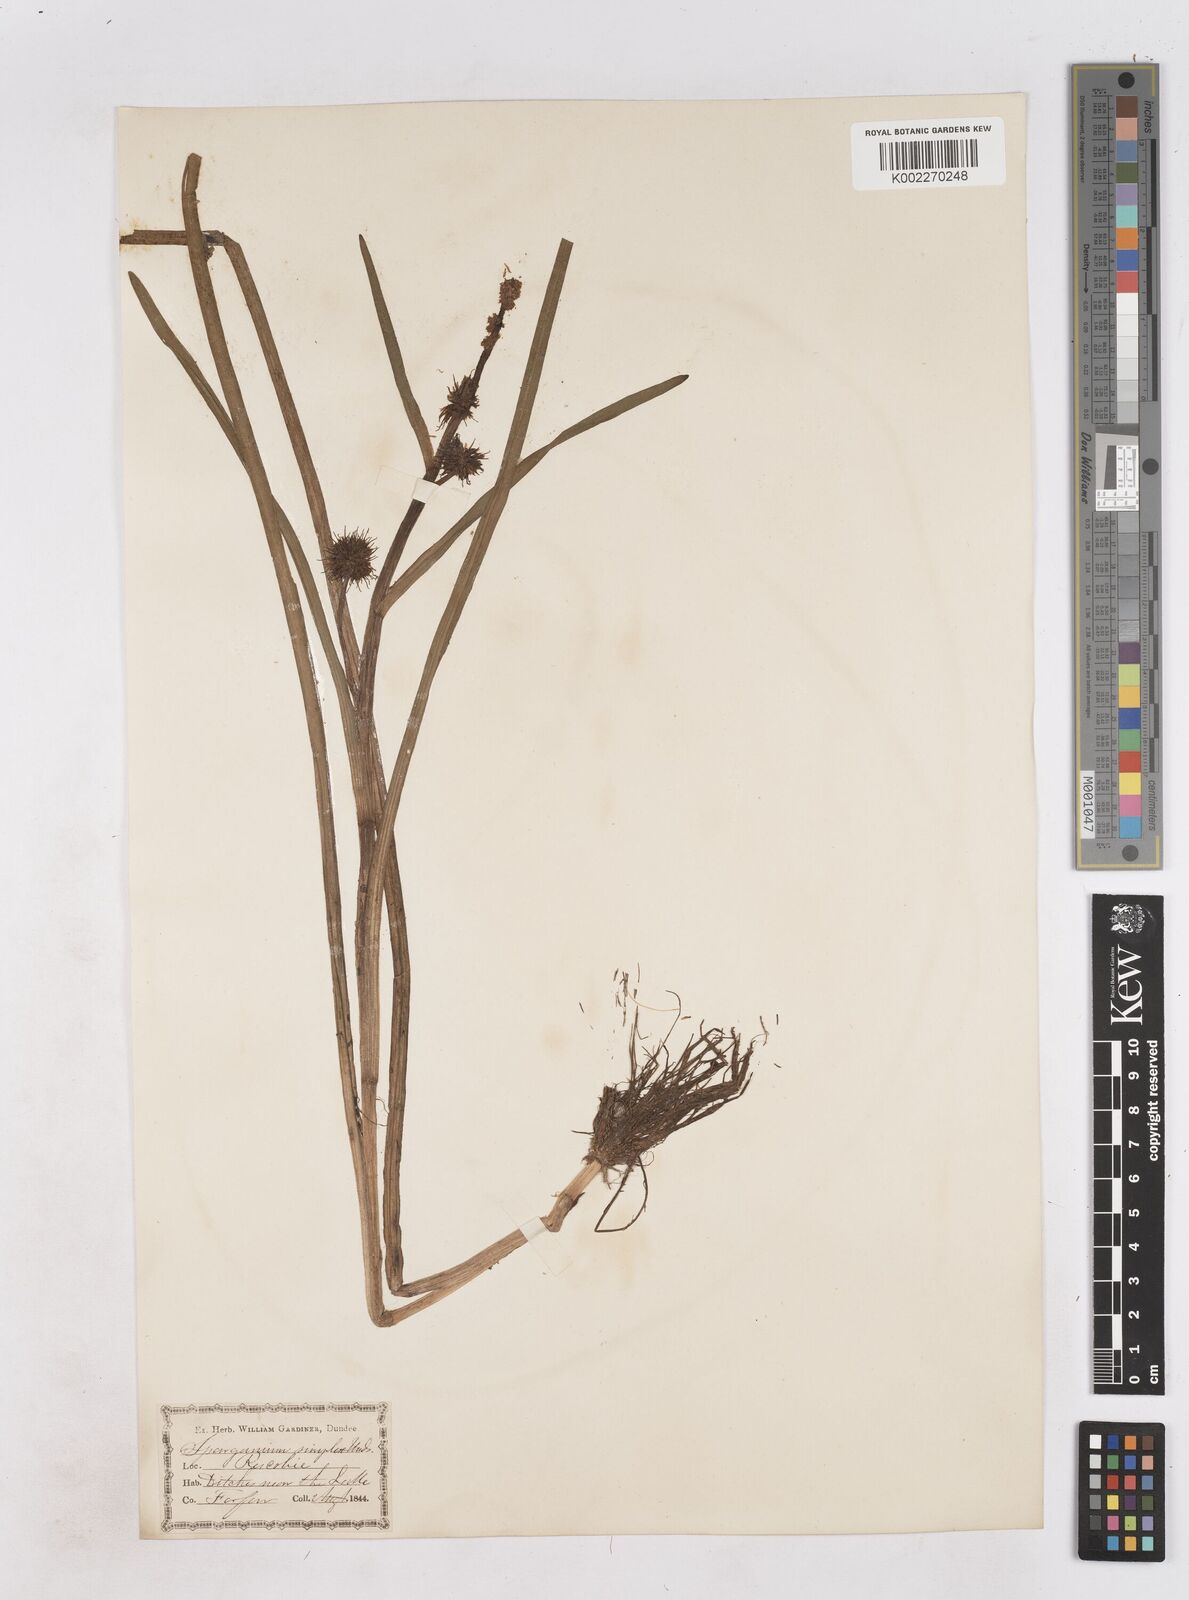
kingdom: Plantae
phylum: Tracheophyta
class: Liliopsida
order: Poales
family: Typhaceae
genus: Sparganium
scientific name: Sparganium emersum
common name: Unbranched bur-reed
